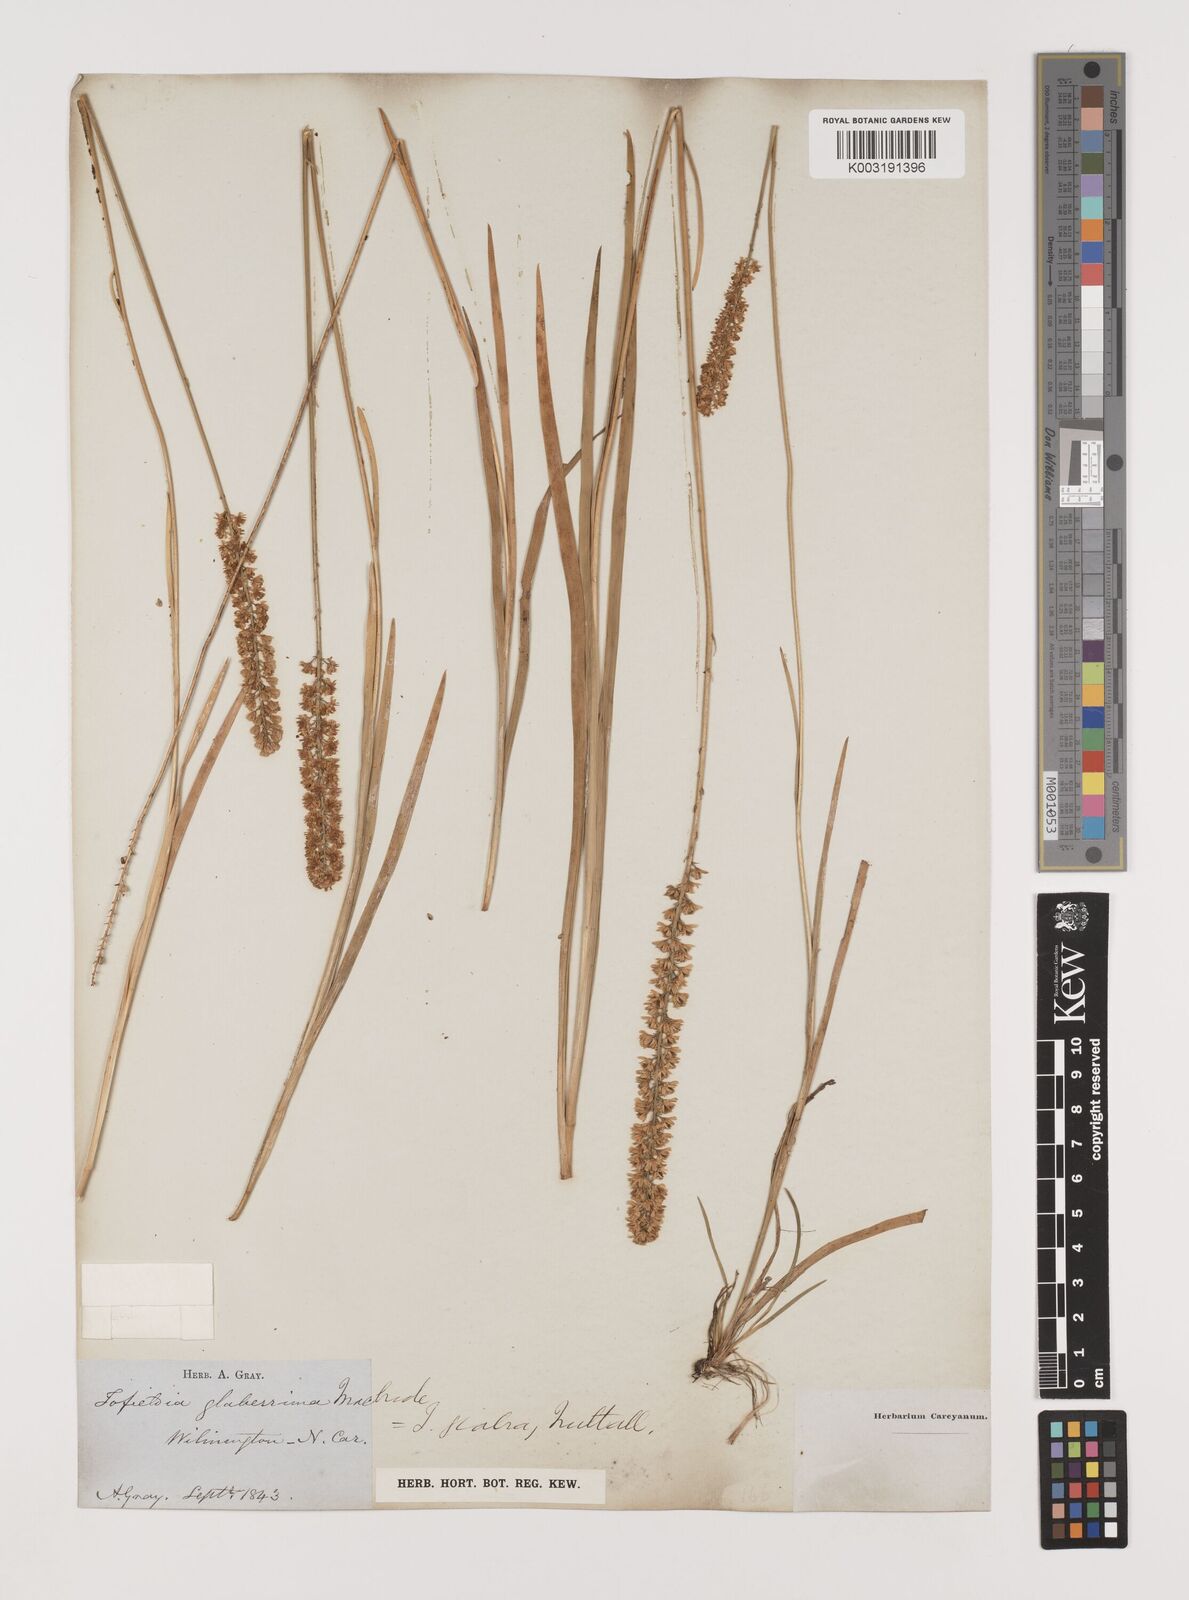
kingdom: Plantae
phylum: Tracheophyta
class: Liliopsida
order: Alismatales
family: Tofieldiaceae
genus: Tofieldia
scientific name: Tofieldia glabra
